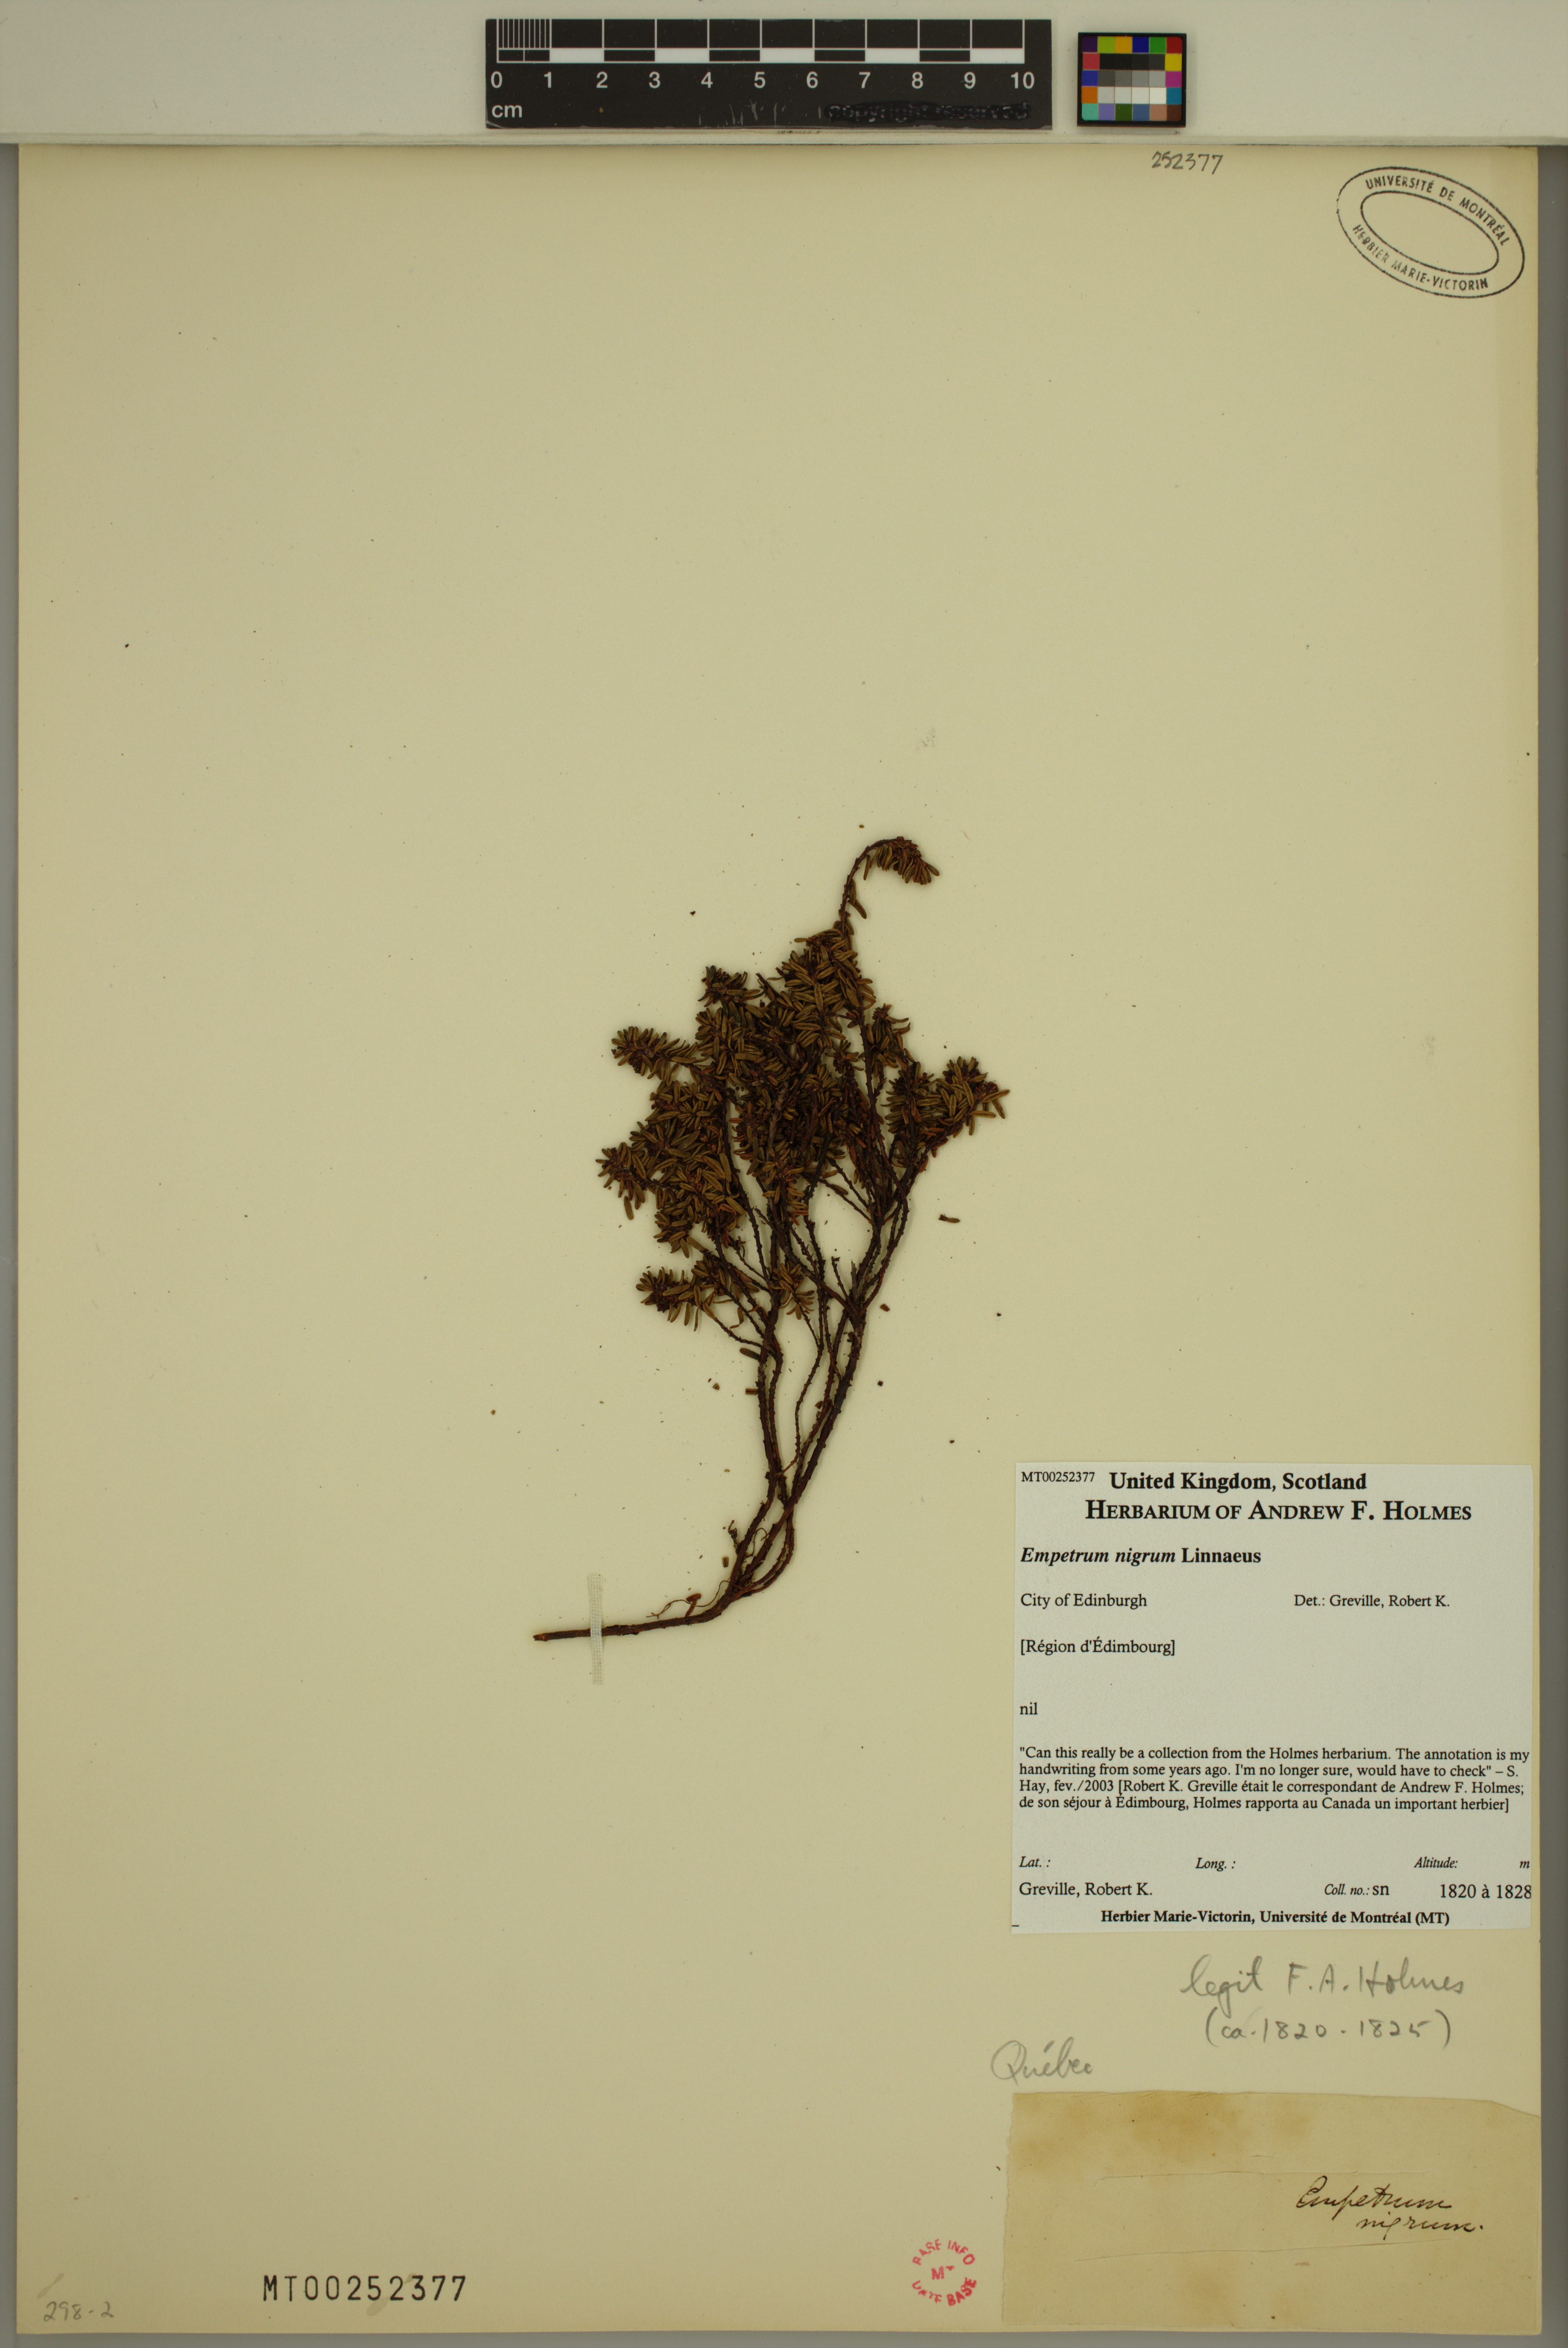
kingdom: Plantae
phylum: Tracheophyta
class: Magnoliopsida
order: Ericales
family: Ericaceae
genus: Empetrum
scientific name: Empetrum nigrum
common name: Black crowberry
